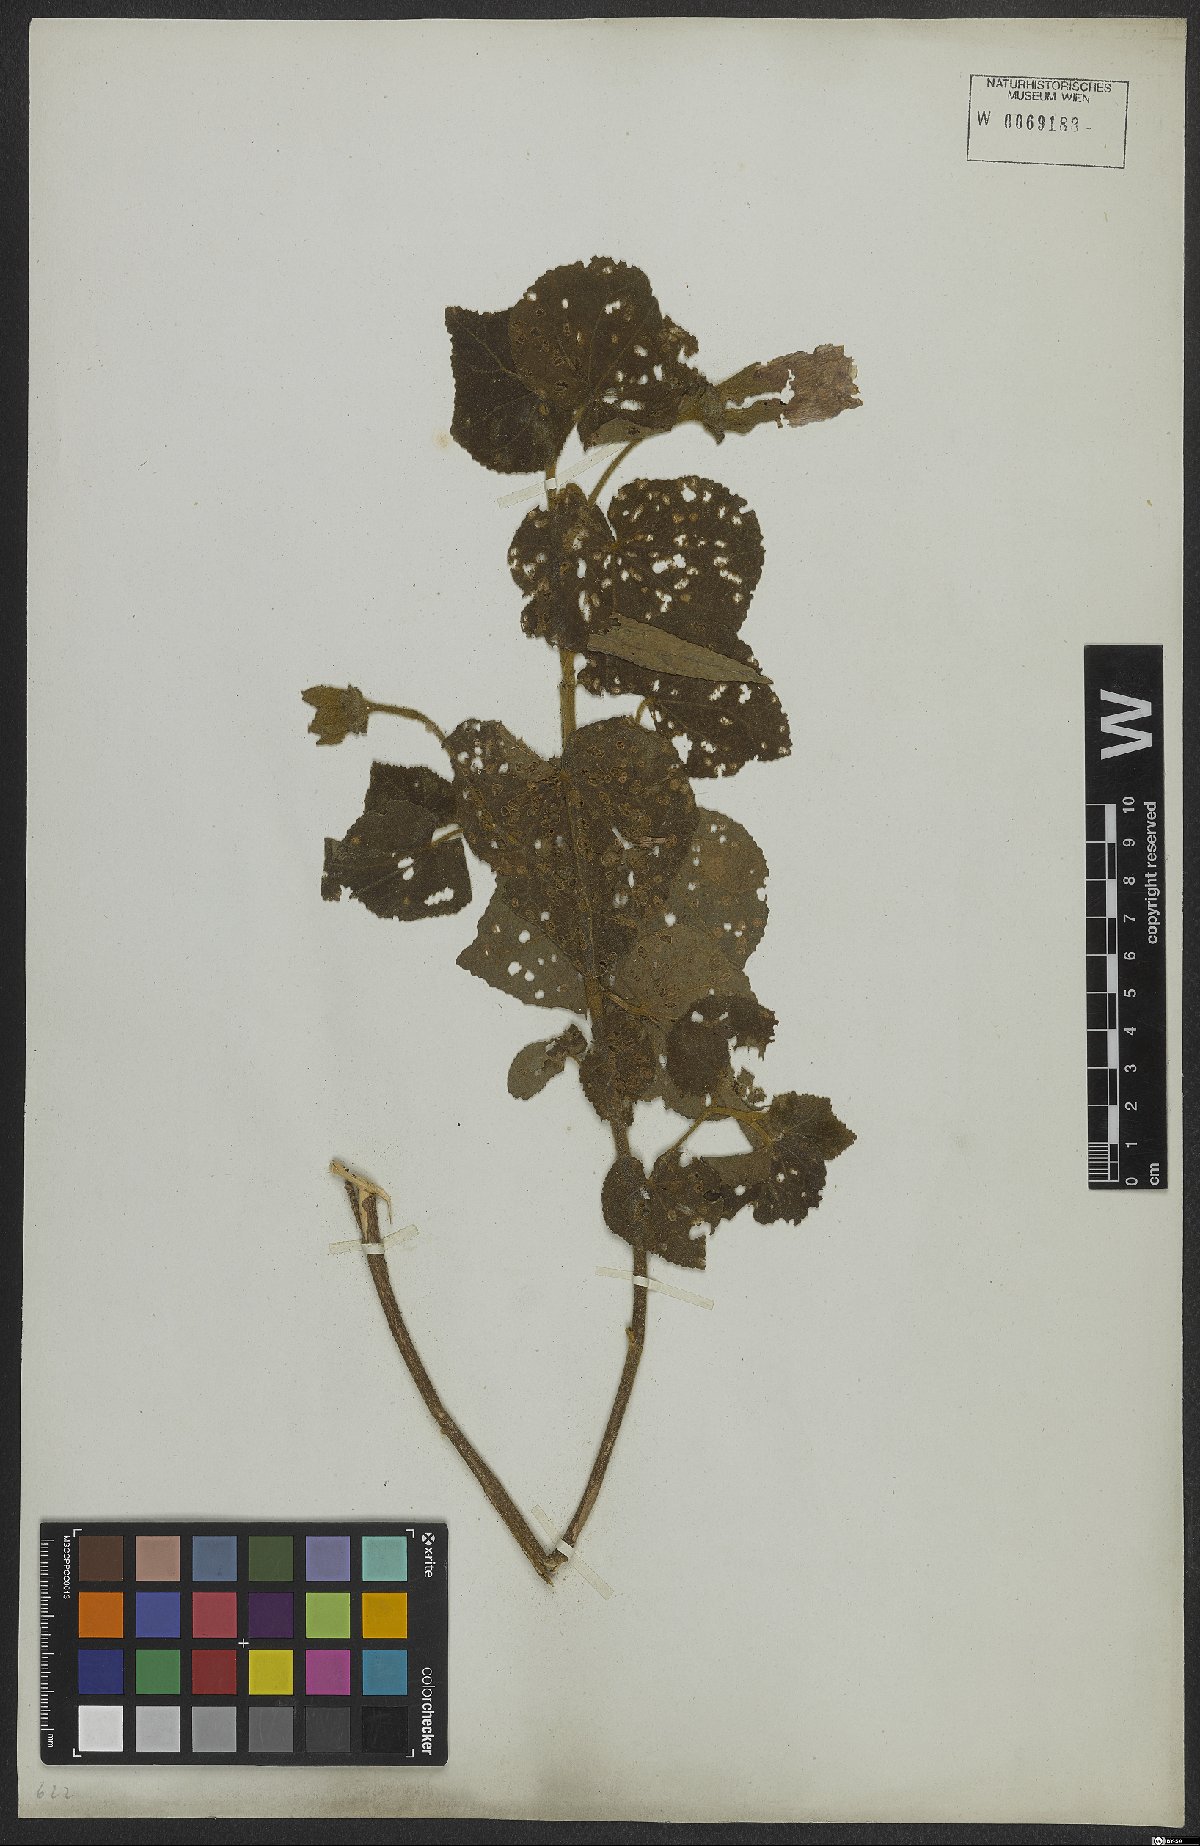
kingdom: Plantae
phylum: Tracheophyta
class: Magnoliopsida
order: Malvales
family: Malvaceae
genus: Hibiscus
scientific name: Hibiscus sororius
